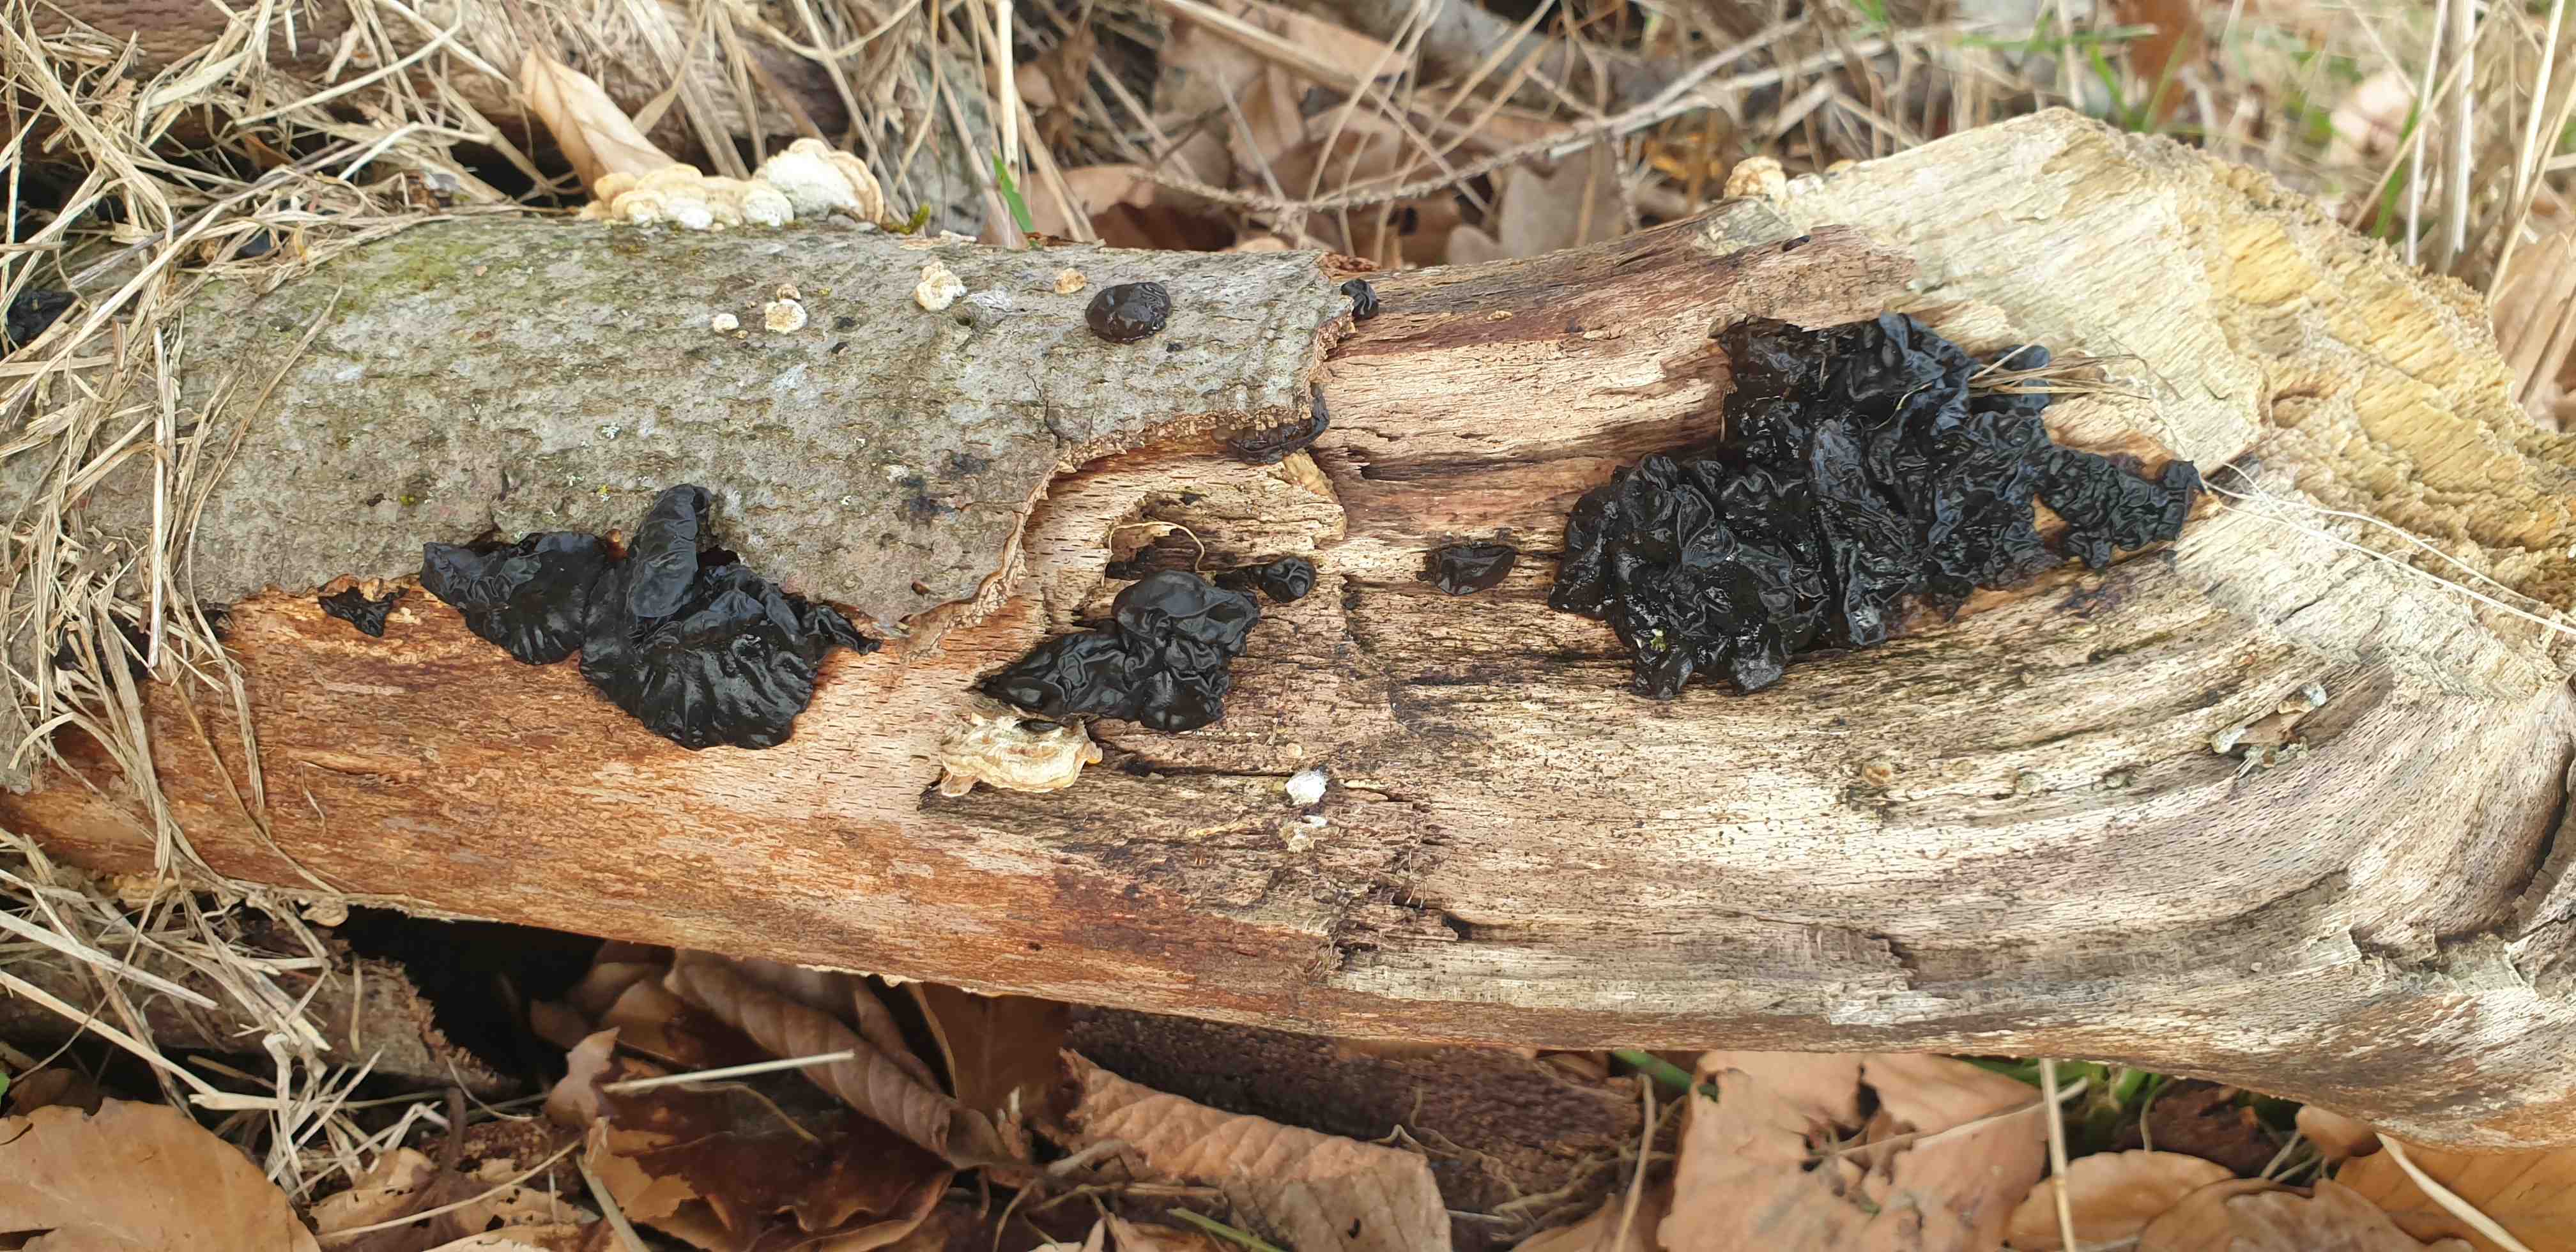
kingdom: Fungi
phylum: Basidiomycota
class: Agaricomycetes
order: Auriculariales
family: Auriculariaceae
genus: Exidia
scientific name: Exidia nigricans
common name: almindelig bævretop
